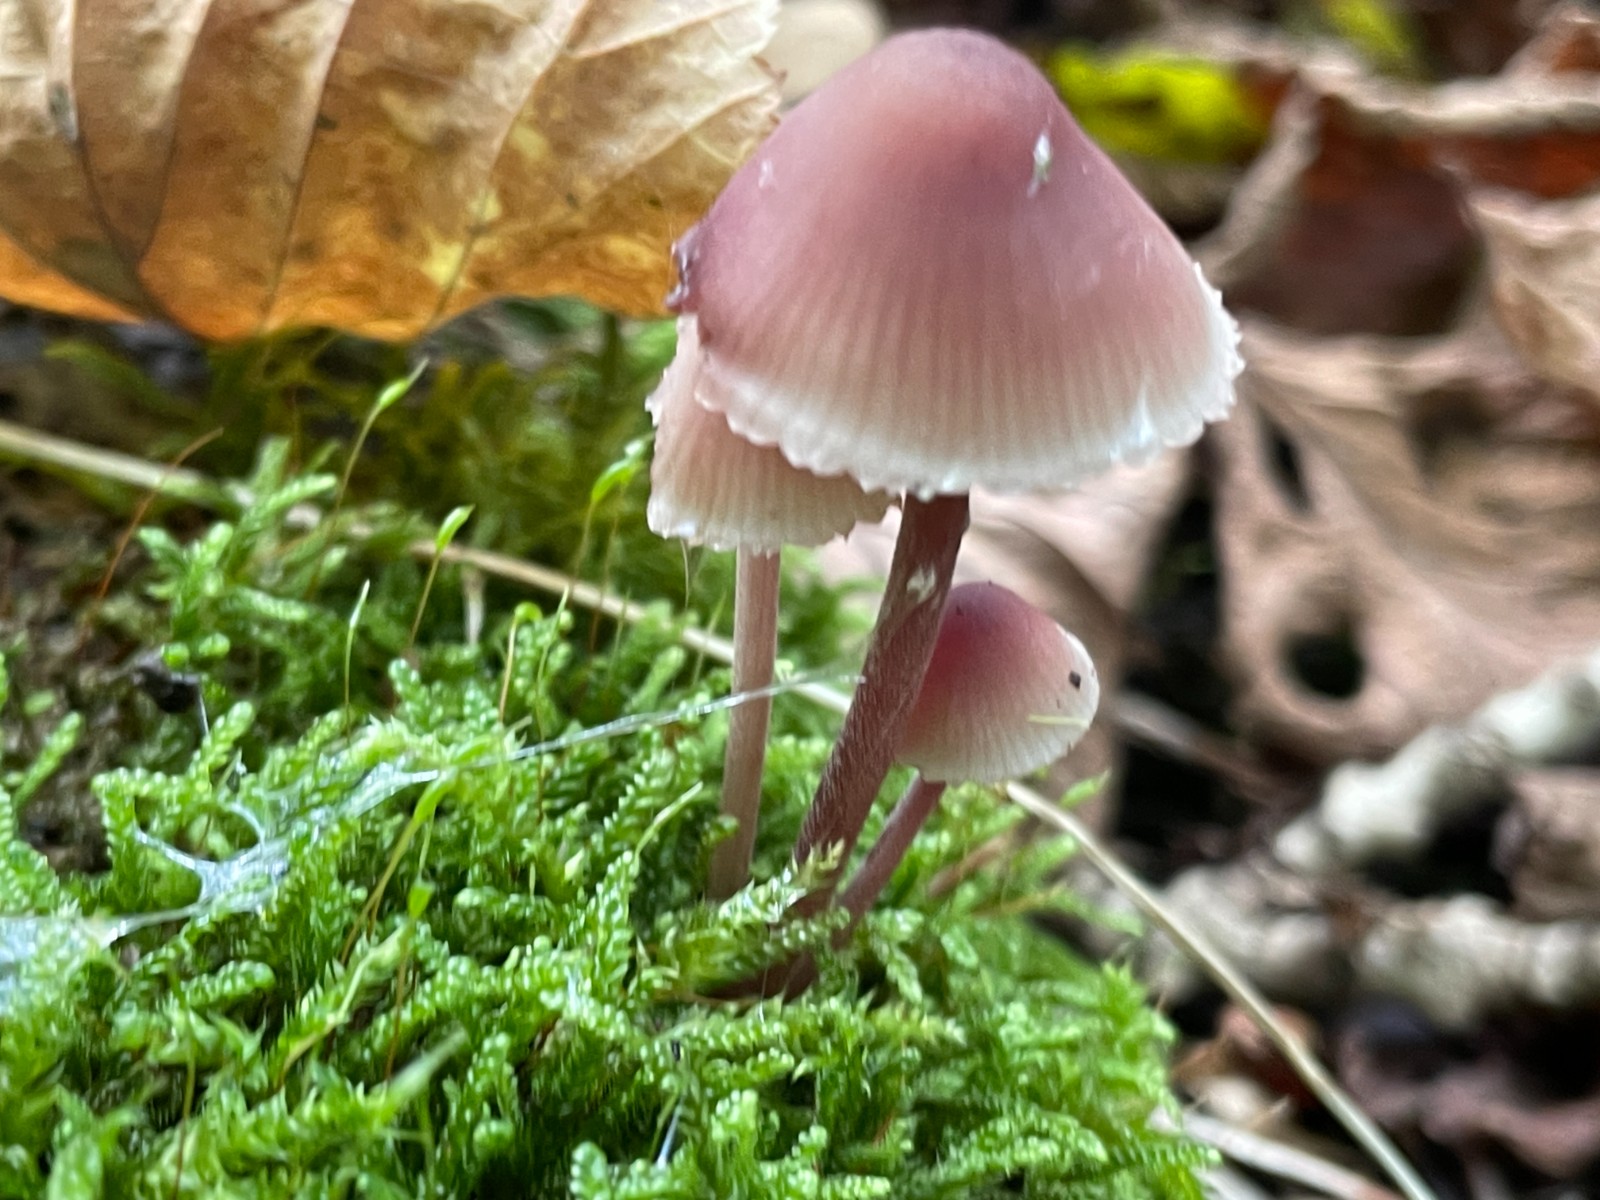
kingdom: Fungi
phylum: Basidiomycota
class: Agaricomycetes
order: Agaricales
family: Mycenaceae
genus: Mycena
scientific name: Mycena haematopus
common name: blødende huesvamp
